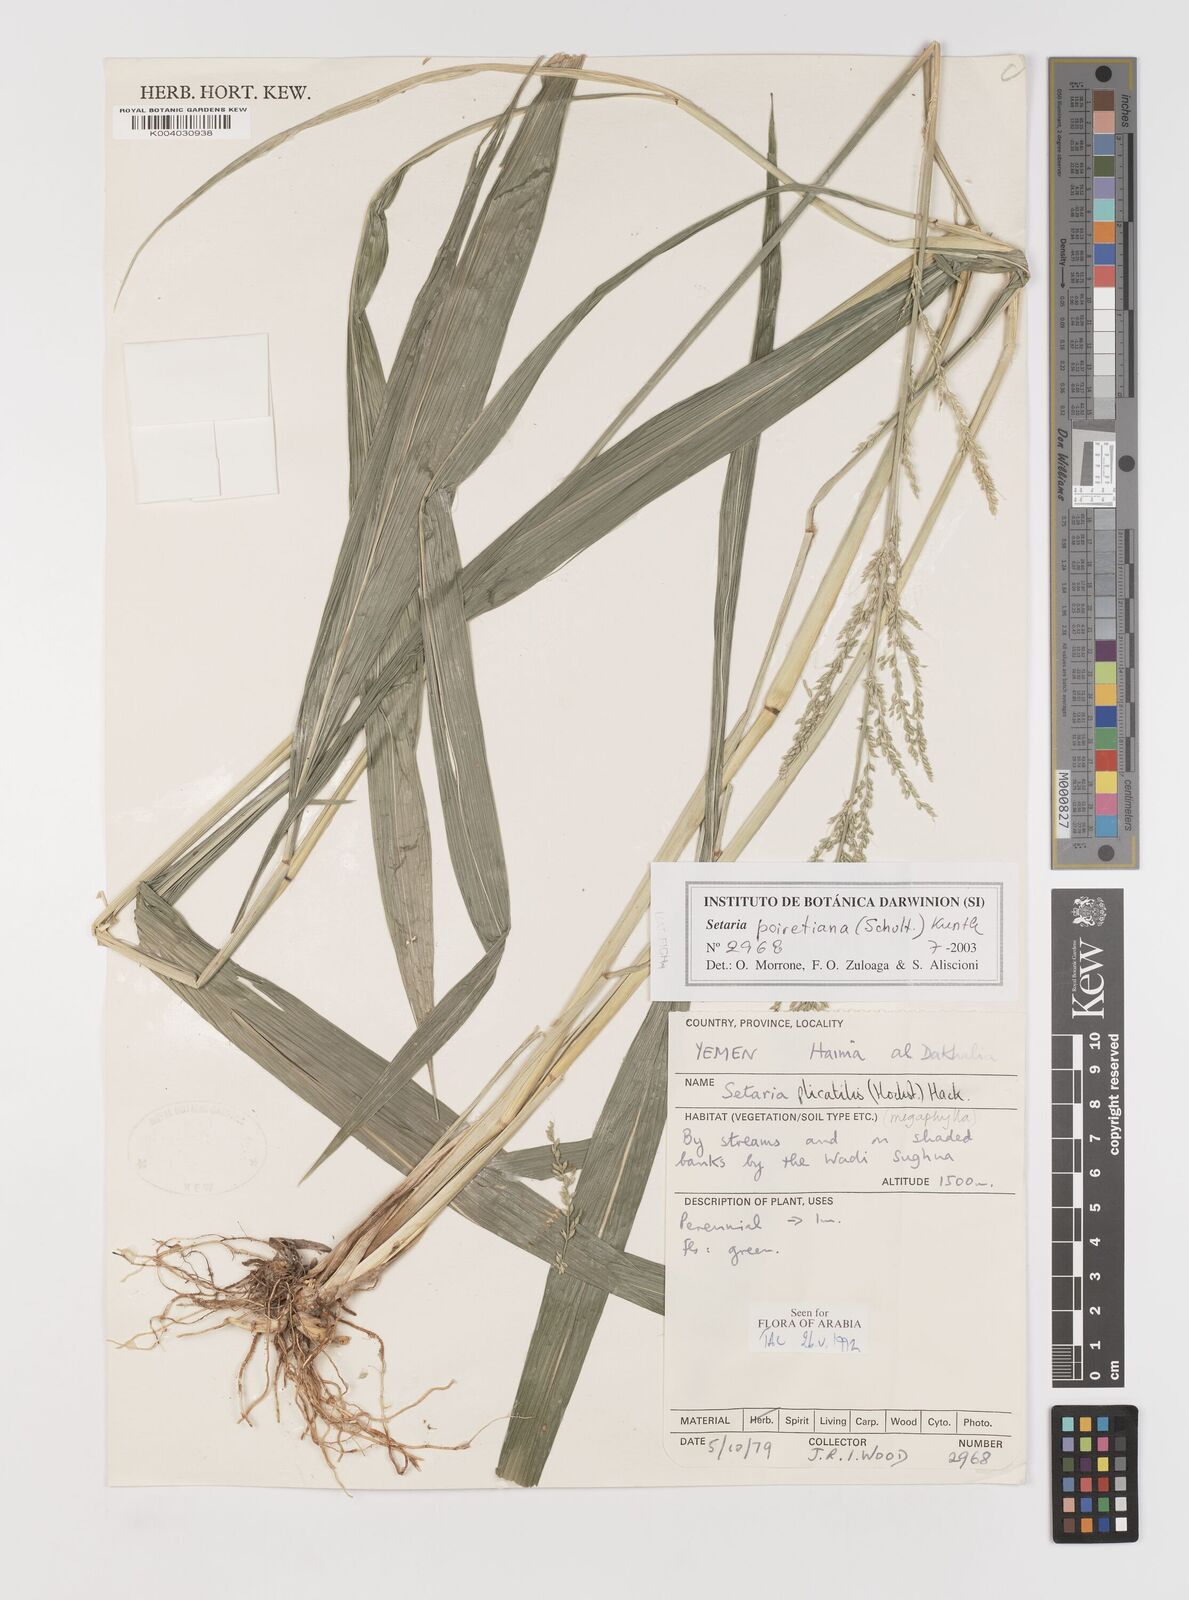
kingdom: Plantae
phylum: Tracheophyta
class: Liliopsida
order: Poales
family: Poaceae
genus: Setaria
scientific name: Setaria poiretiana
